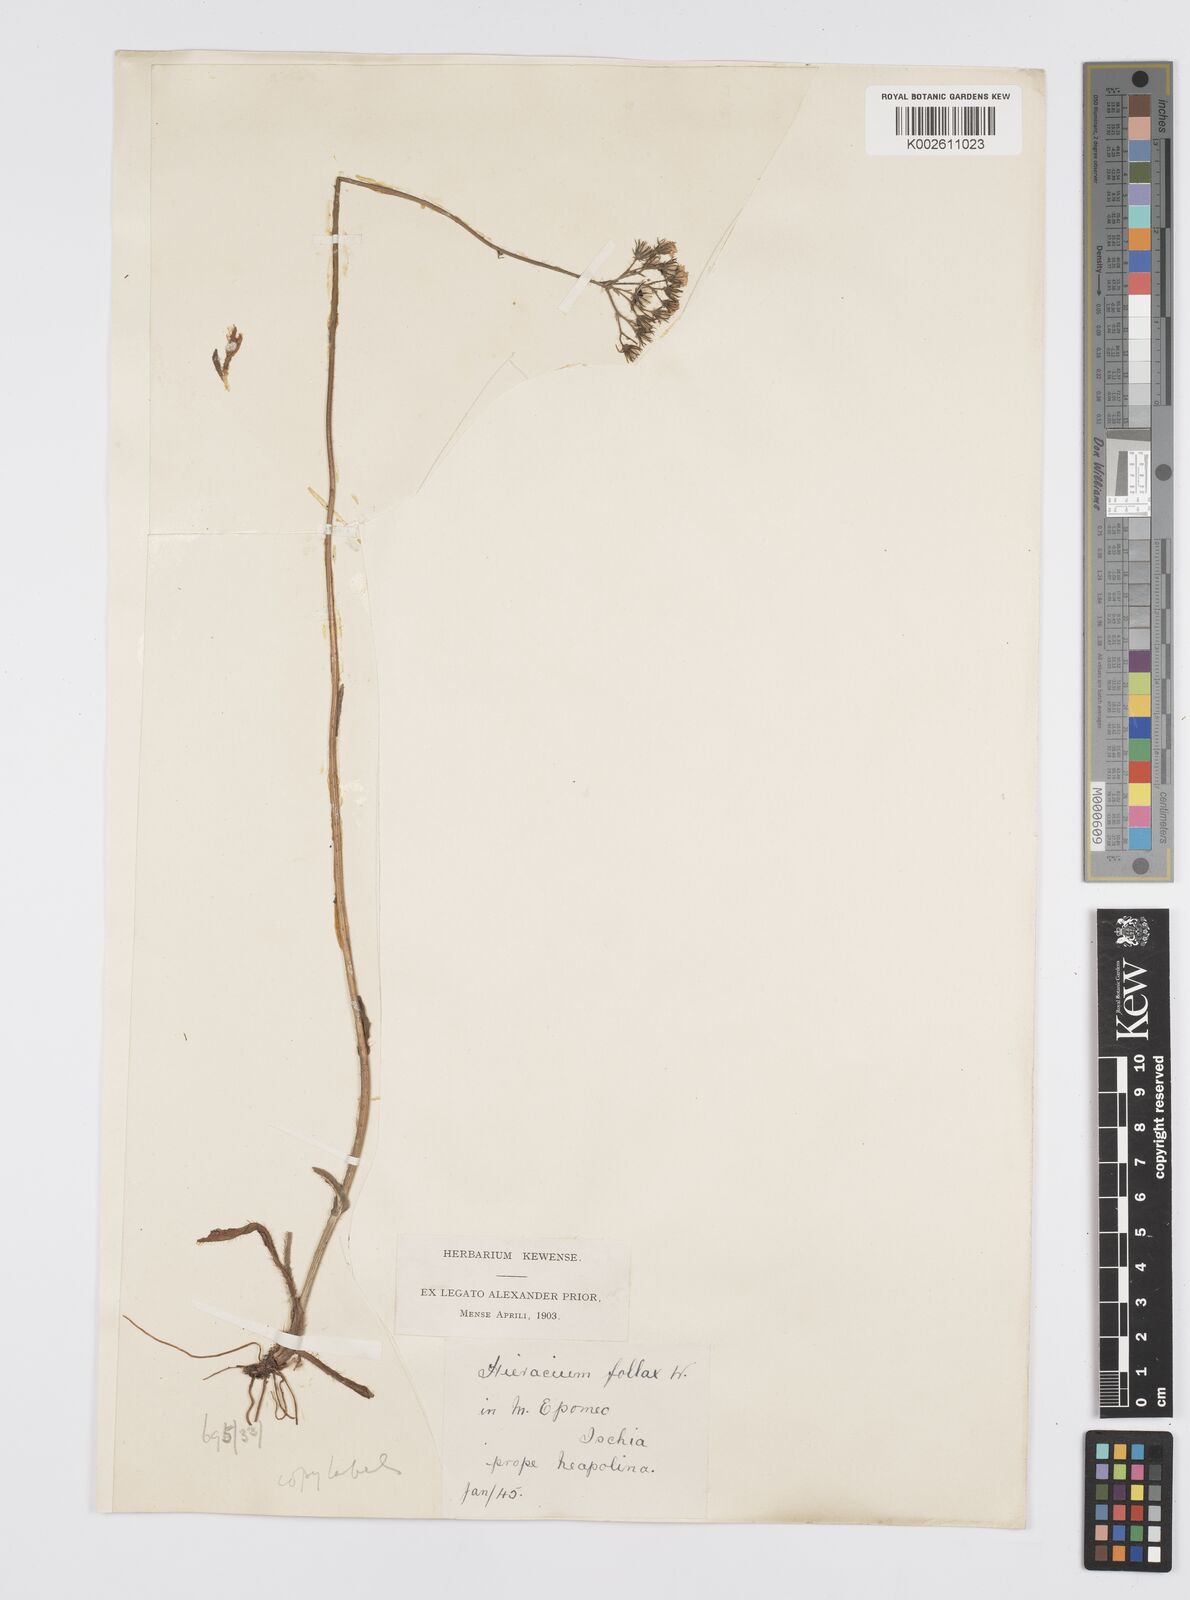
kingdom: Plantae
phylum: Tracheophyta
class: Magnoliopsida
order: Asterales
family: Asteraceae
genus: Pilosella
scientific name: Pilosella piloselloides
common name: Glaucous king-devil
